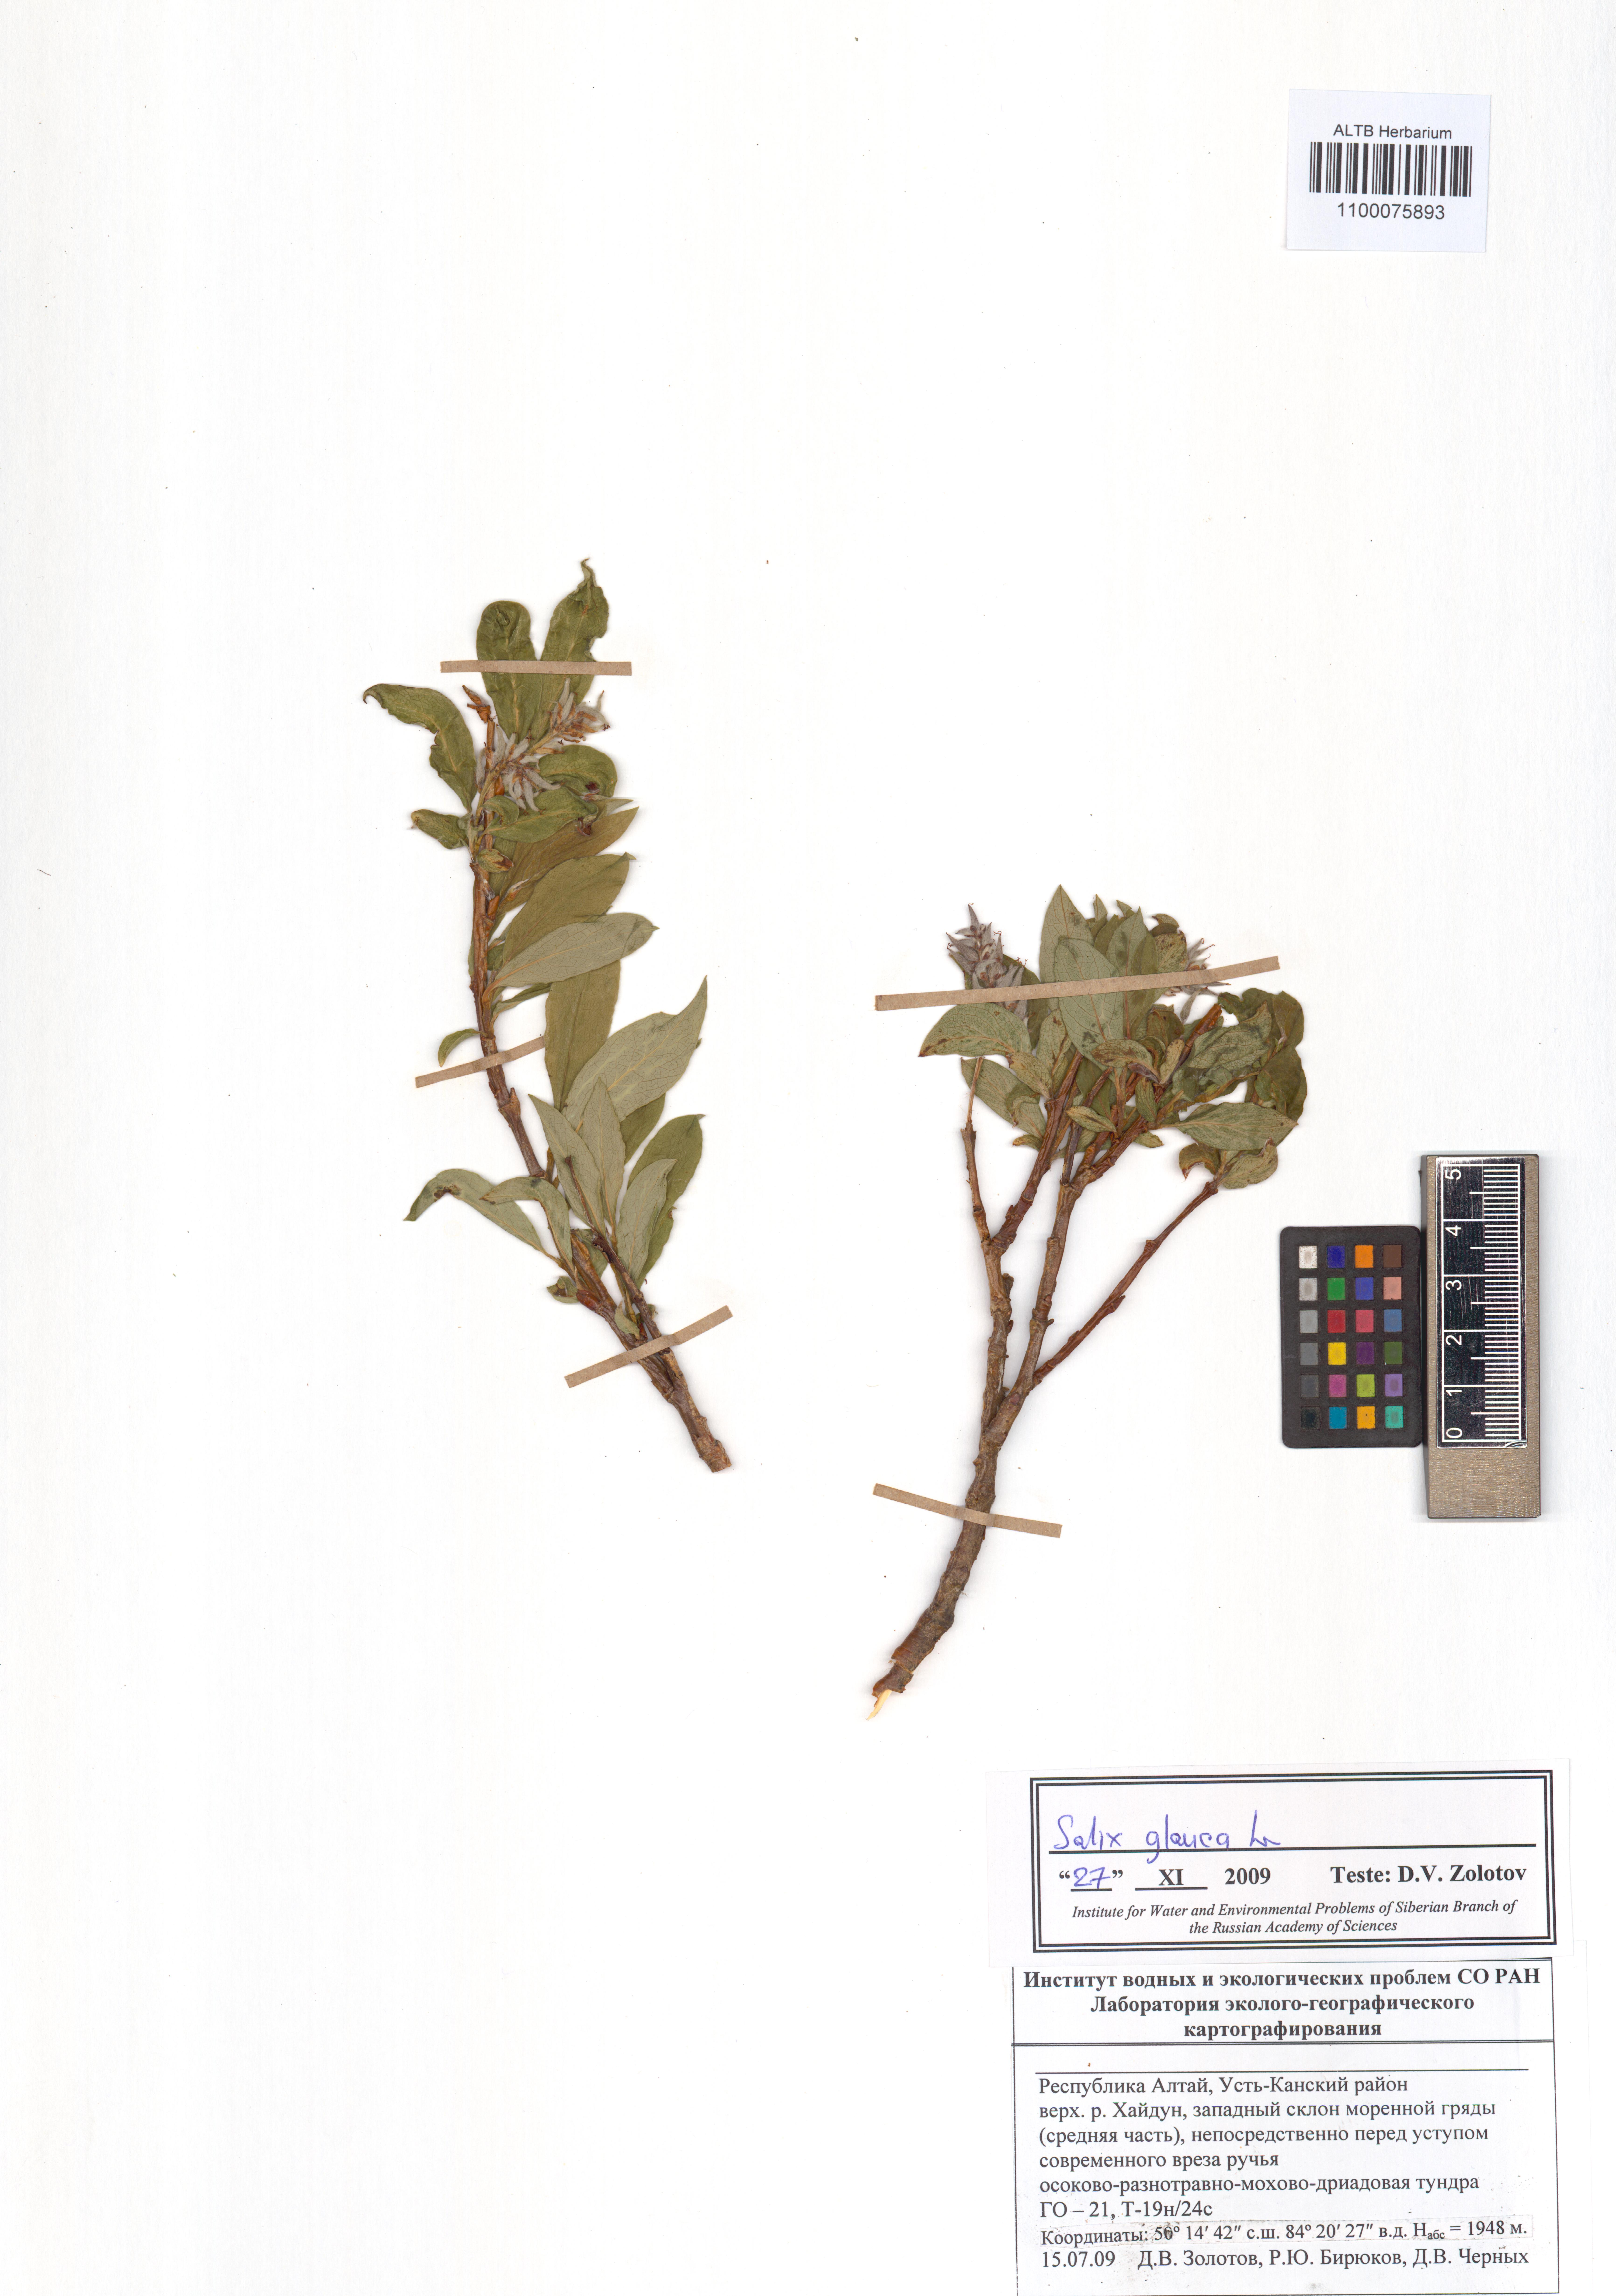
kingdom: Plantae
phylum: Tracheophyta
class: Magnoliopsida
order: Malpighiales
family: Salicaceae
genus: Salix
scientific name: Salix glauca
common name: Glaucous willow
